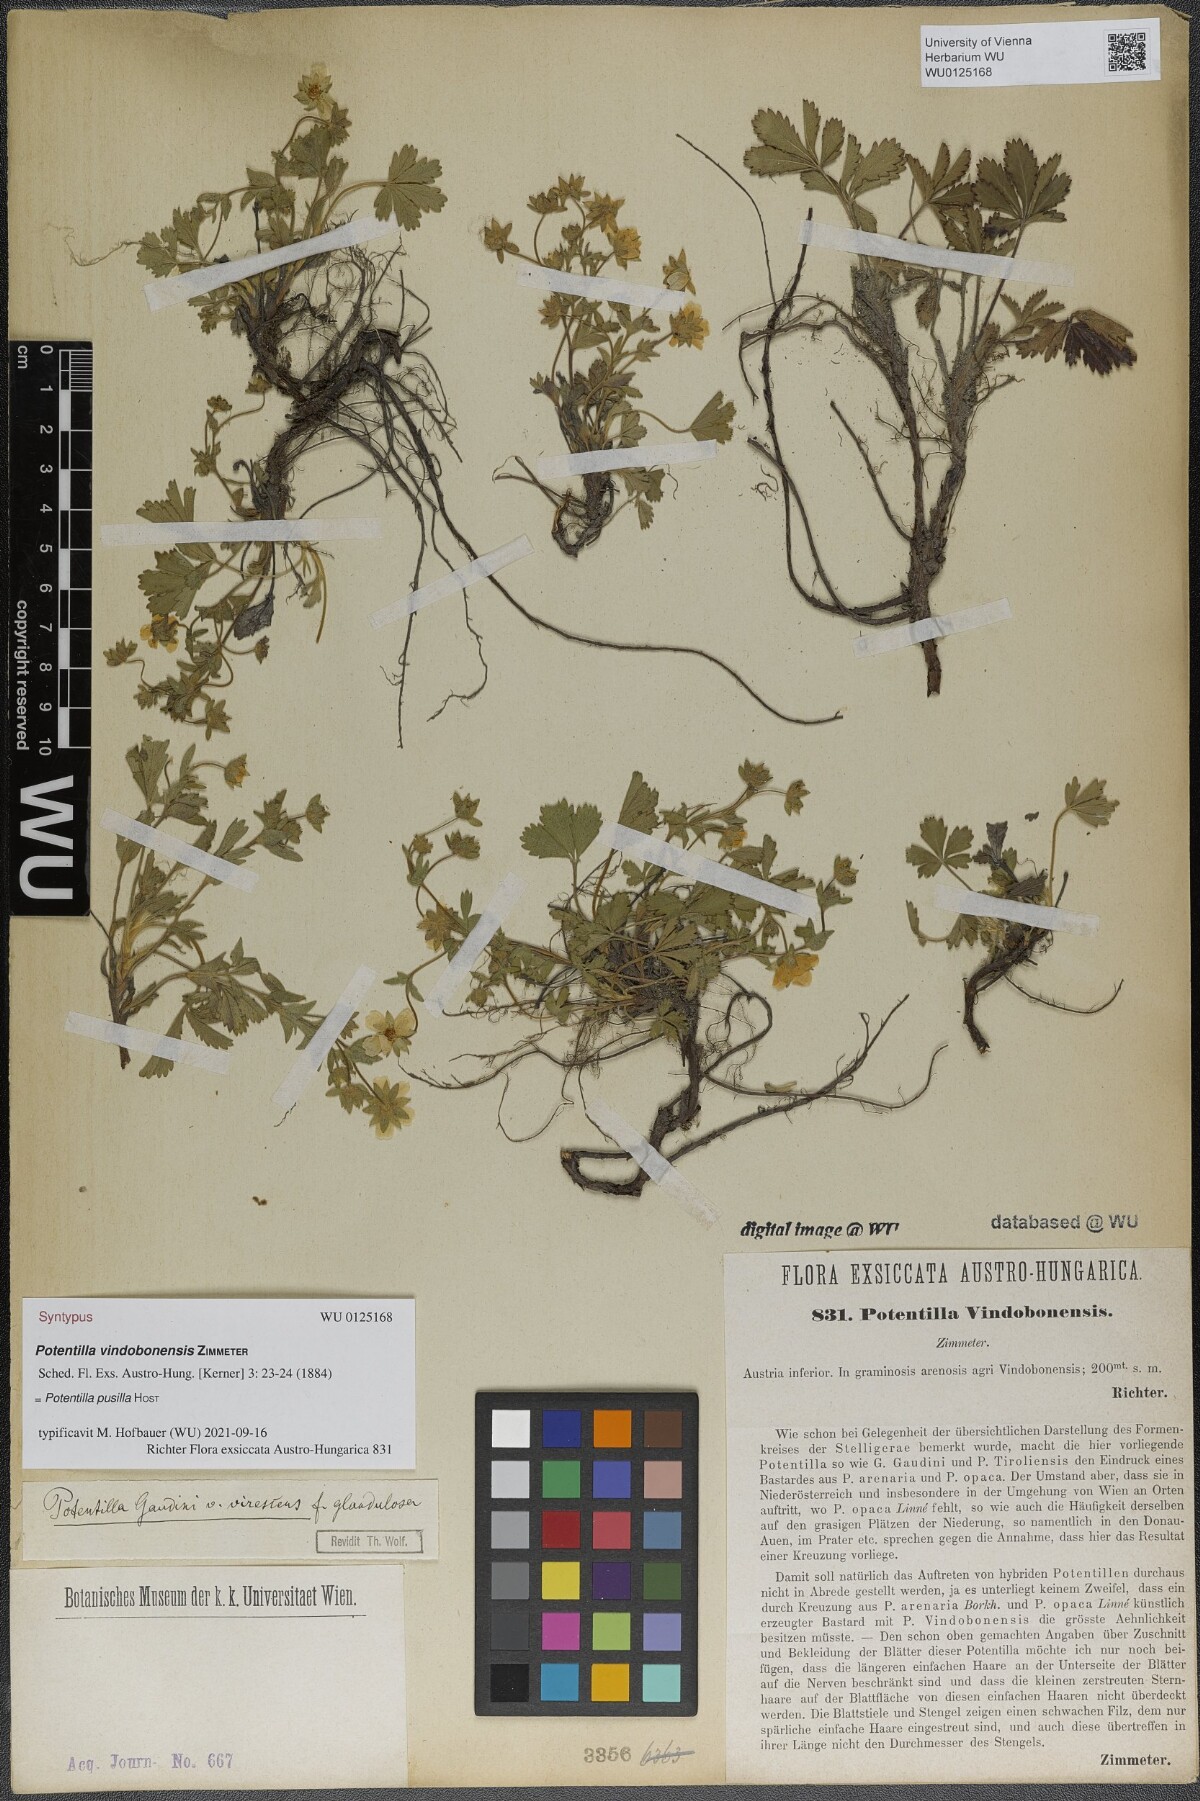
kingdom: Plantae
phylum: Tracheophyta
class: Magnoliopsida
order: Rosales
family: Rosaceae
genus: Potentilla
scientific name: Potentilla pusilla
